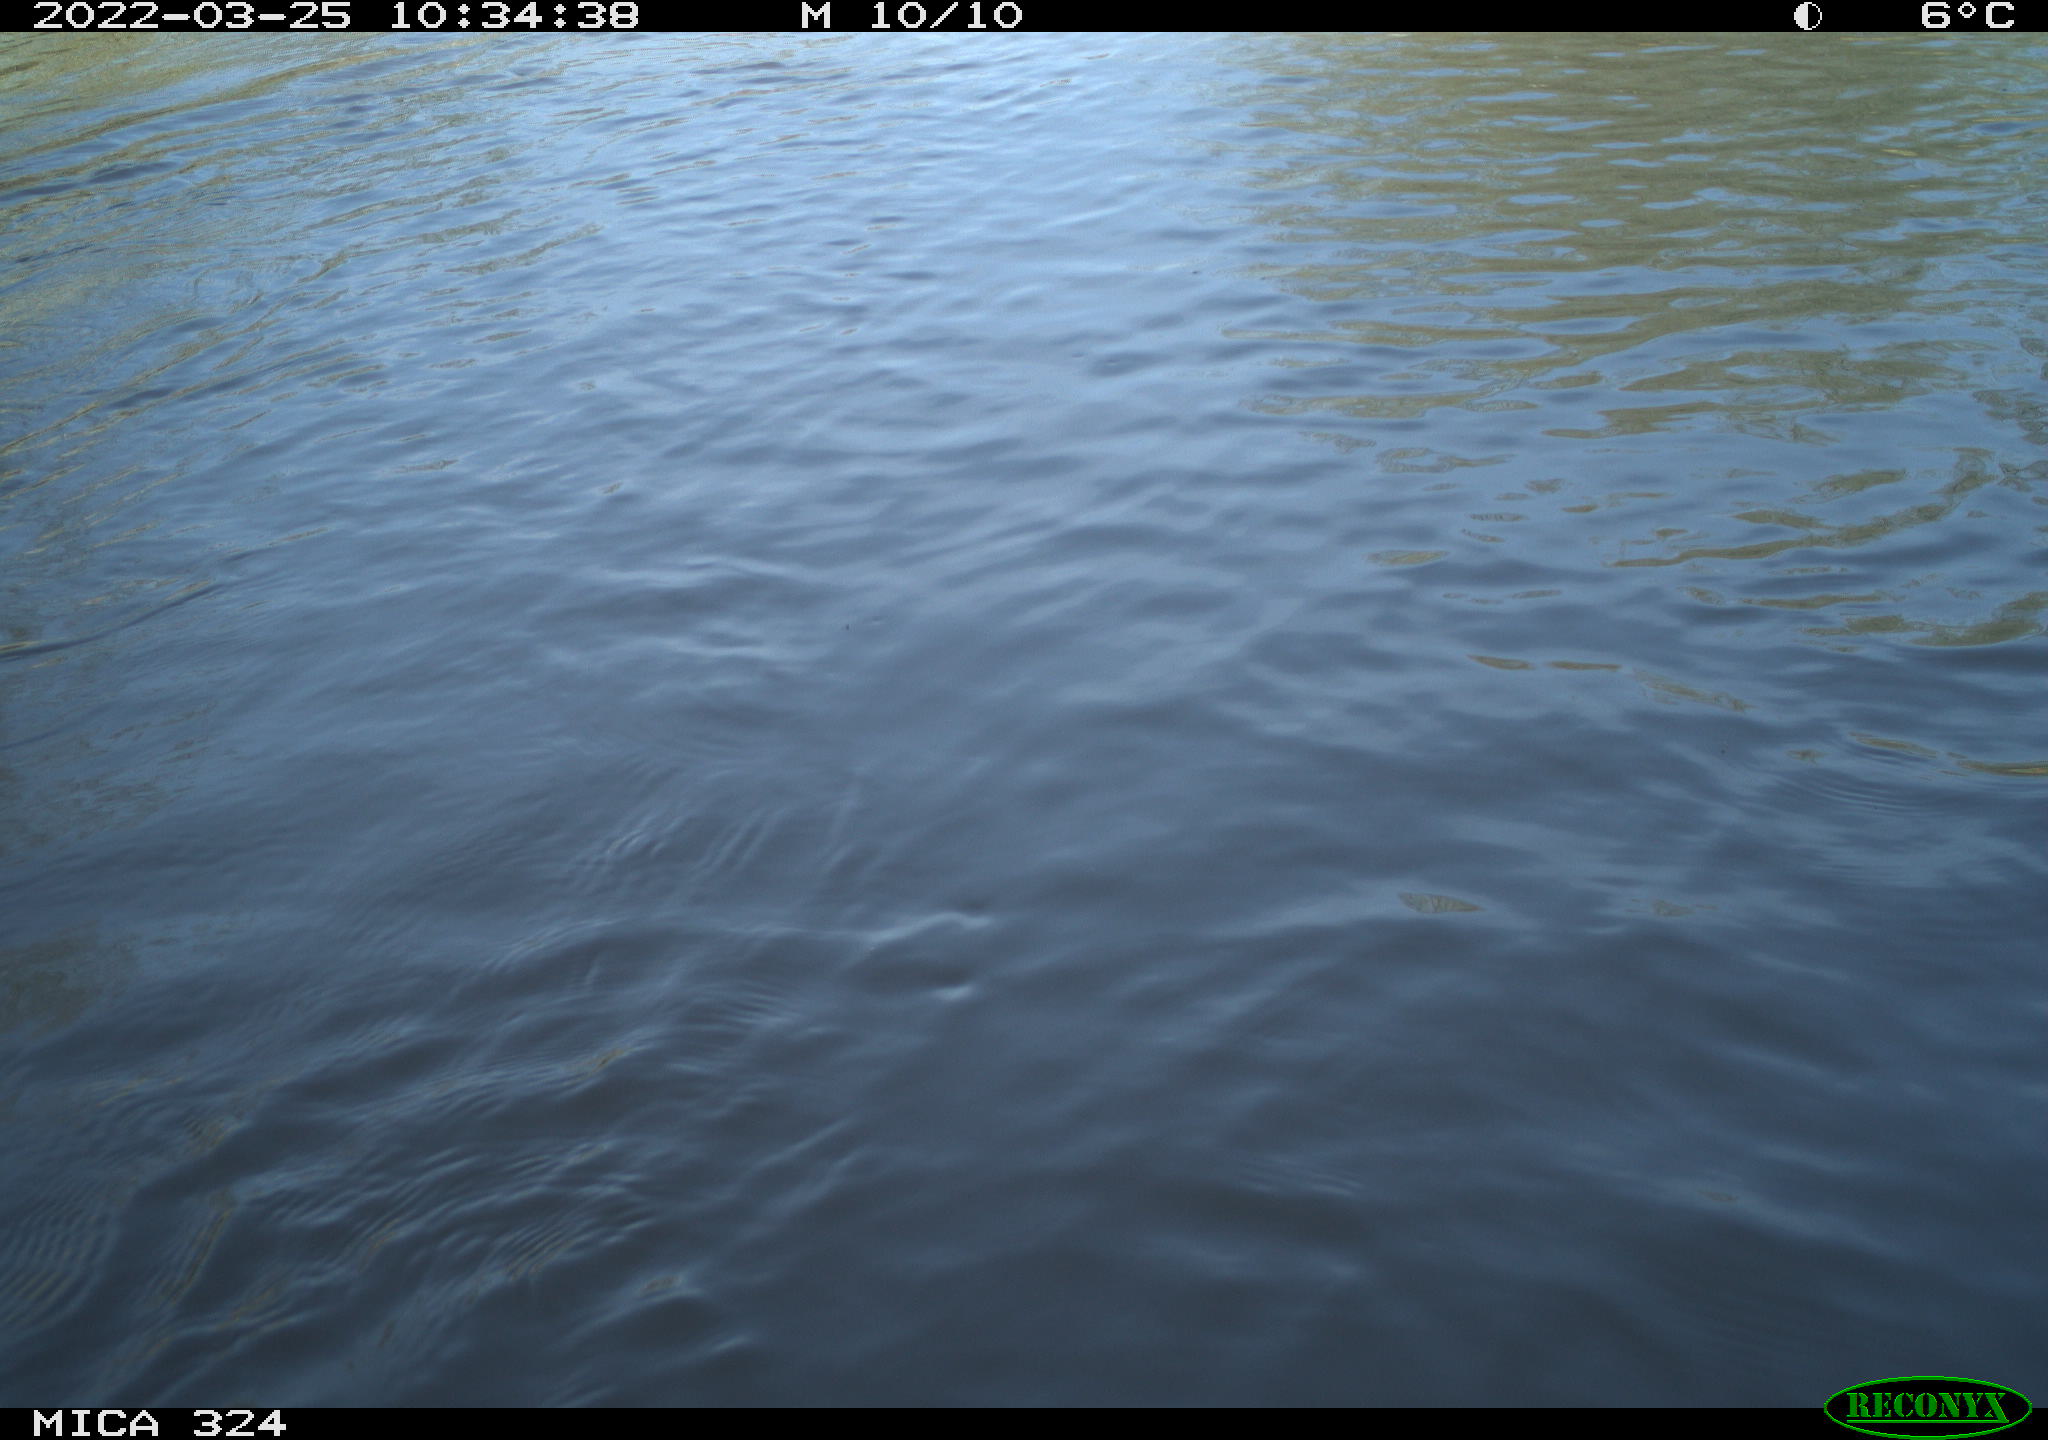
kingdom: Animalia
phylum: Chordata
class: Aves
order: Anseriformes
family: Anatidae
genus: Anas
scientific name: Anas platyrhynchos
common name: Mallard
